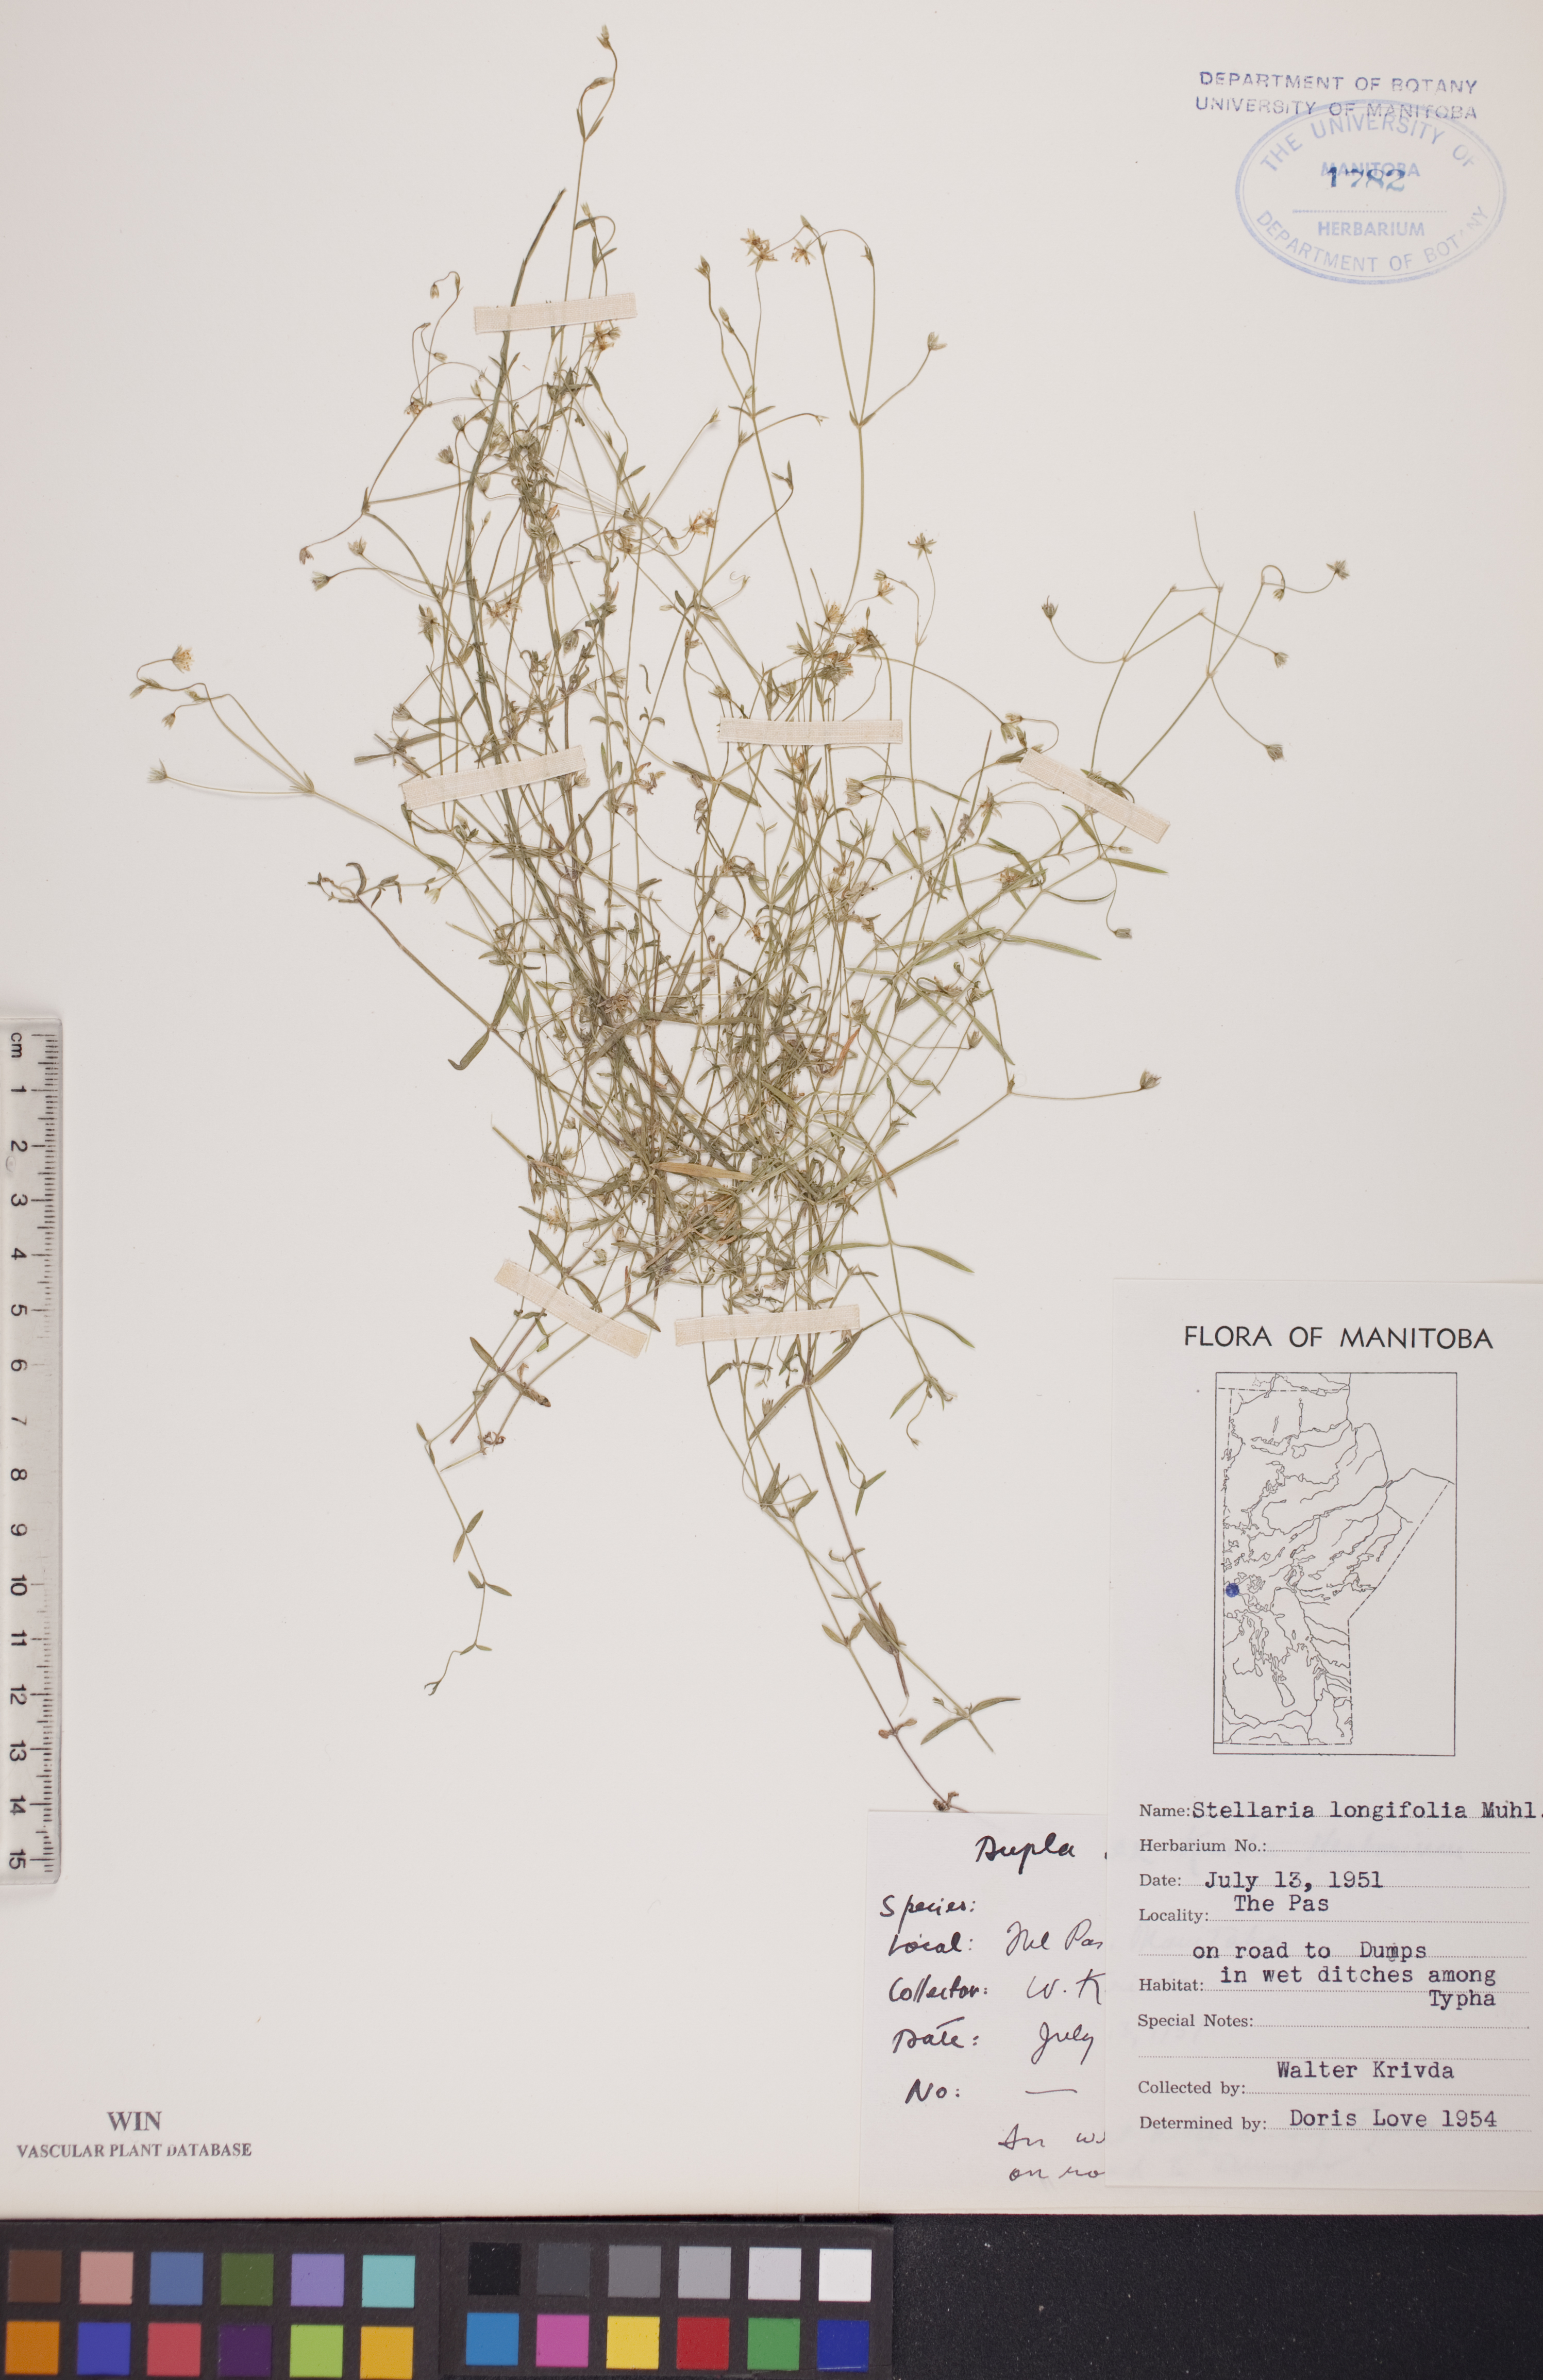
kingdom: Plantae
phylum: Tracheophyta
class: Magnoliopsida
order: Caryophyllales
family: Caryophyllaceae
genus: Stellaria
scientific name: Stellaria longifolia
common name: Long-leaved chickweed
